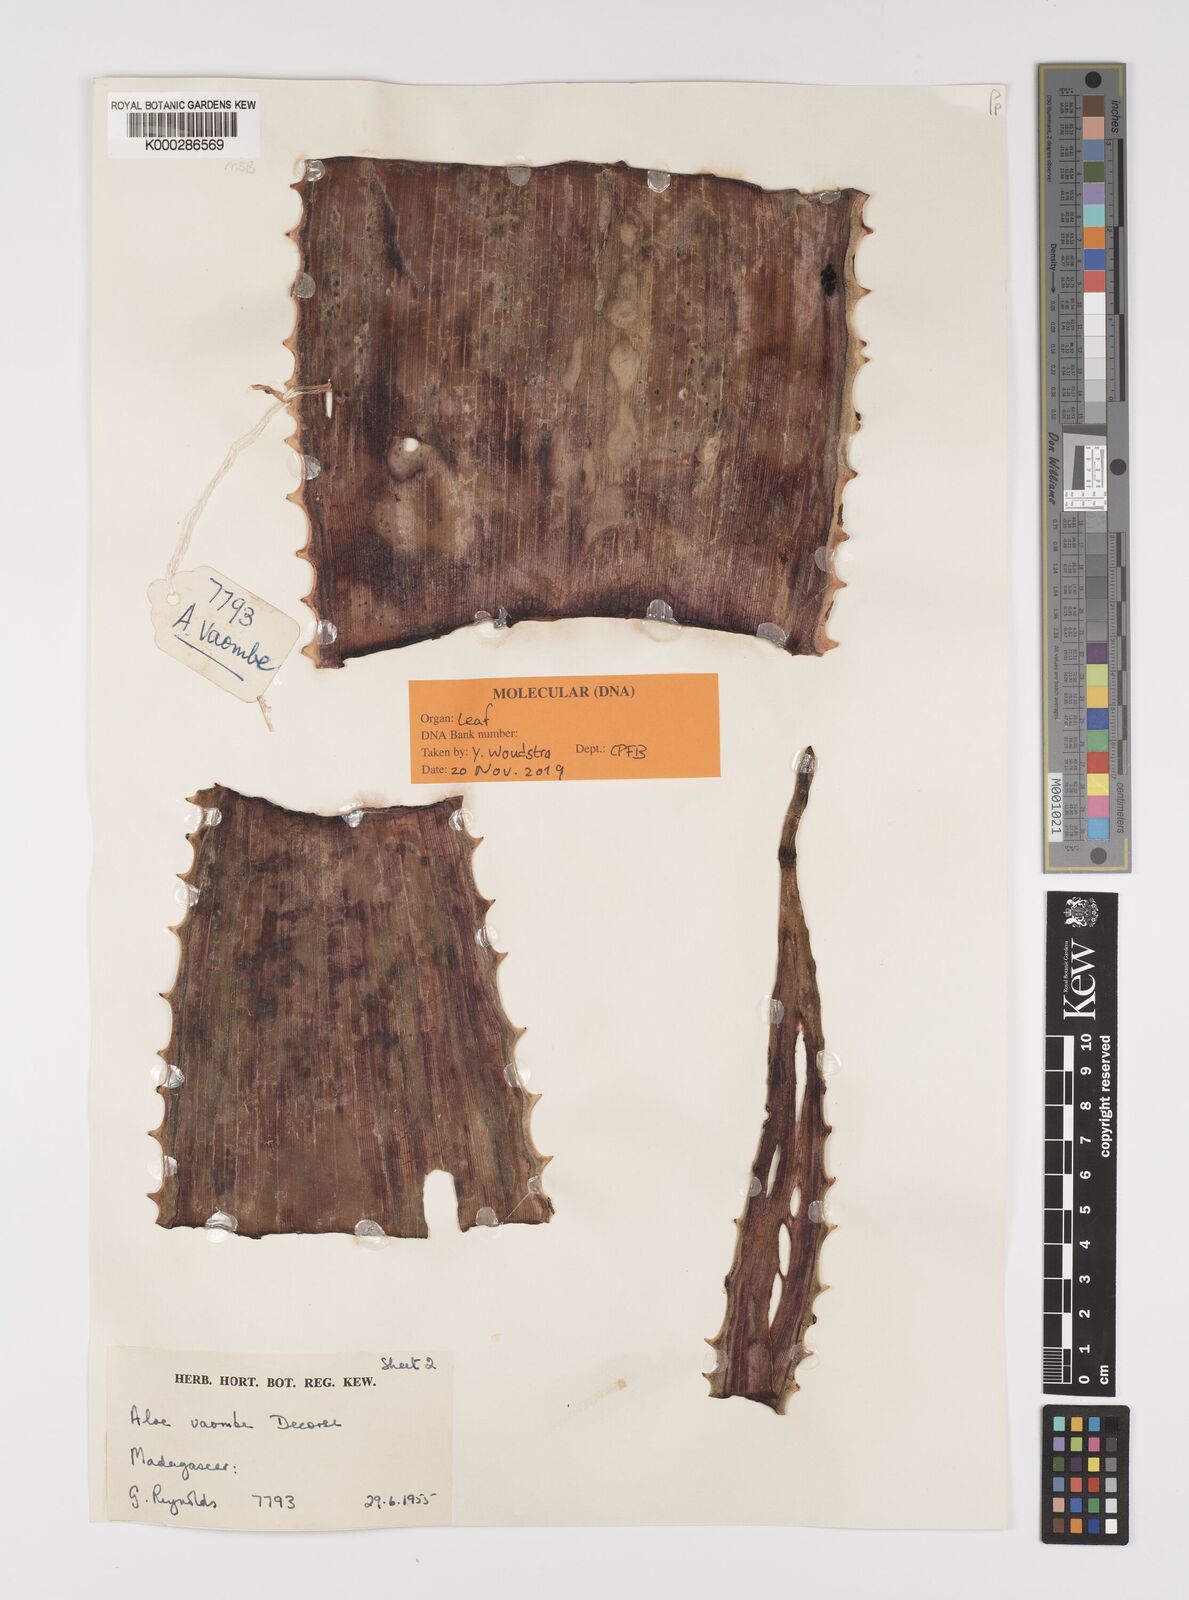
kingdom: Plantae
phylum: Tracheophyta
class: Liliopsida
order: Asparagales
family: Asphodelaceae
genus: Aloe
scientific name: Aloe vaombe
